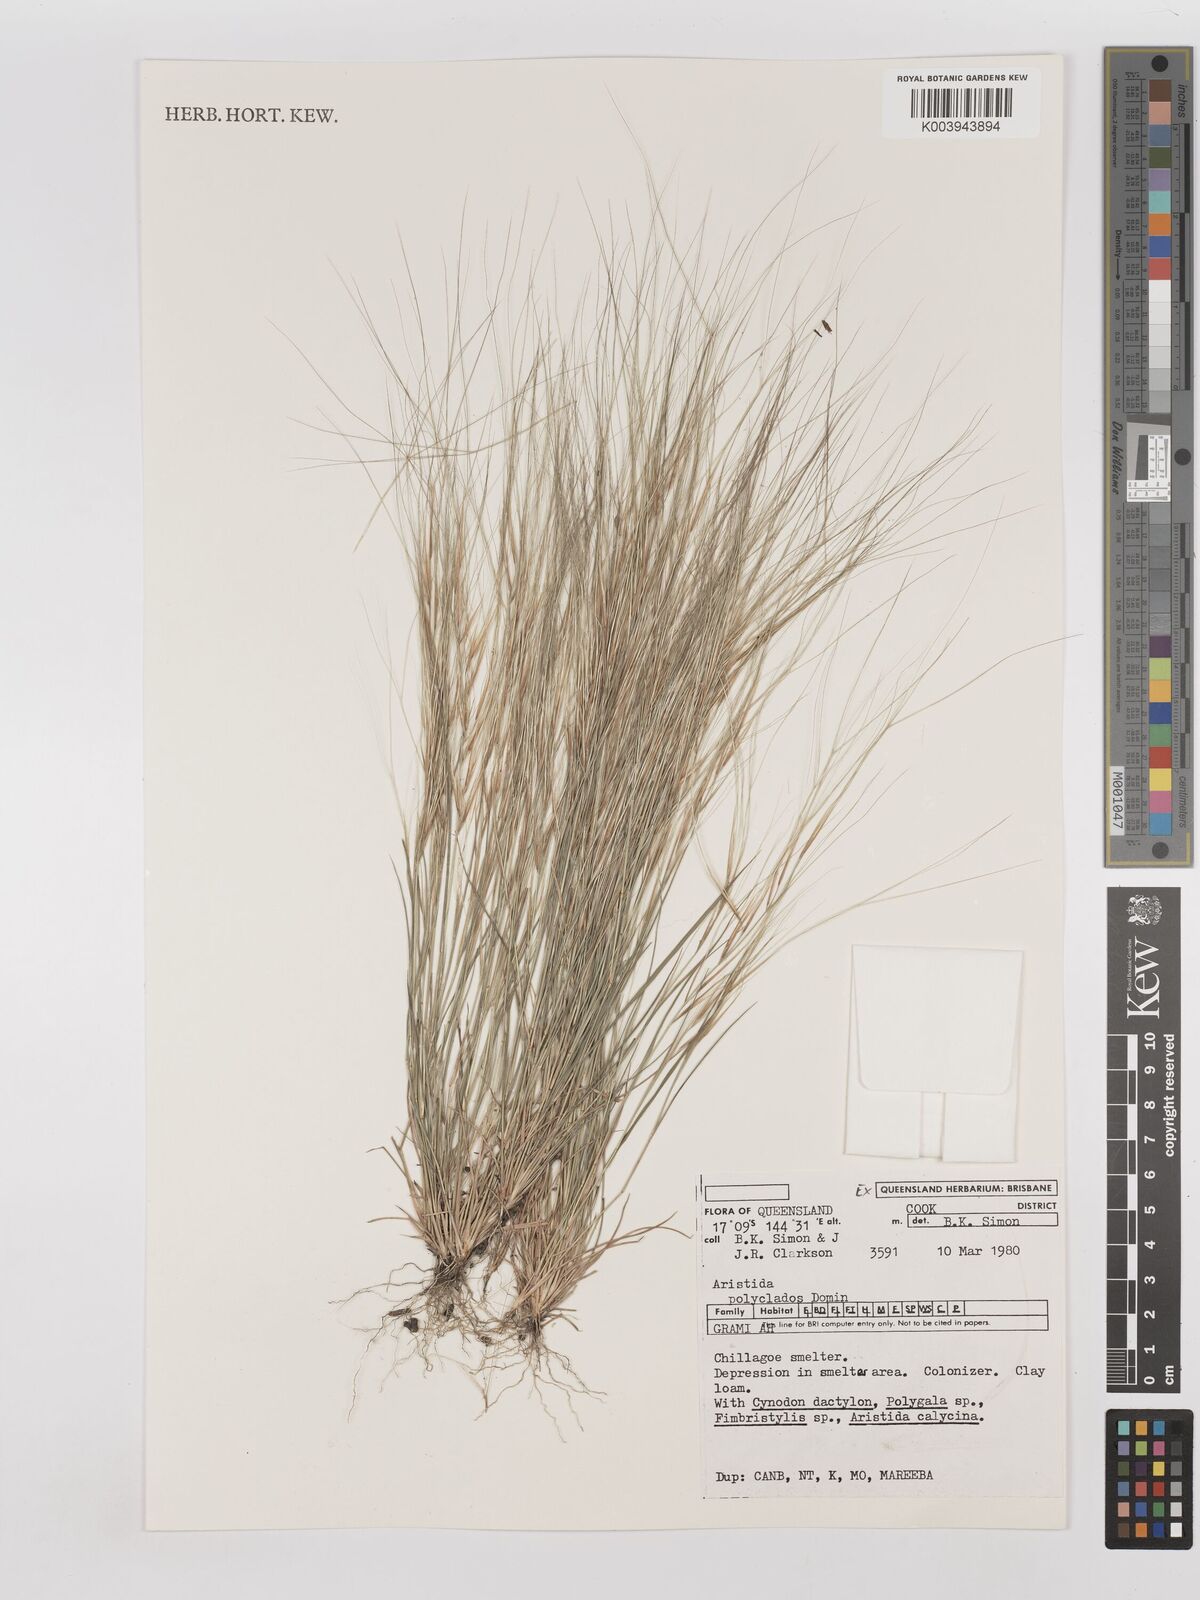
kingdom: Plantae
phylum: Tracheophyta
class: Liliopsida
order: Poales
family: Poaceae
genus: Aristida
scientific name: Aristida polyclados
